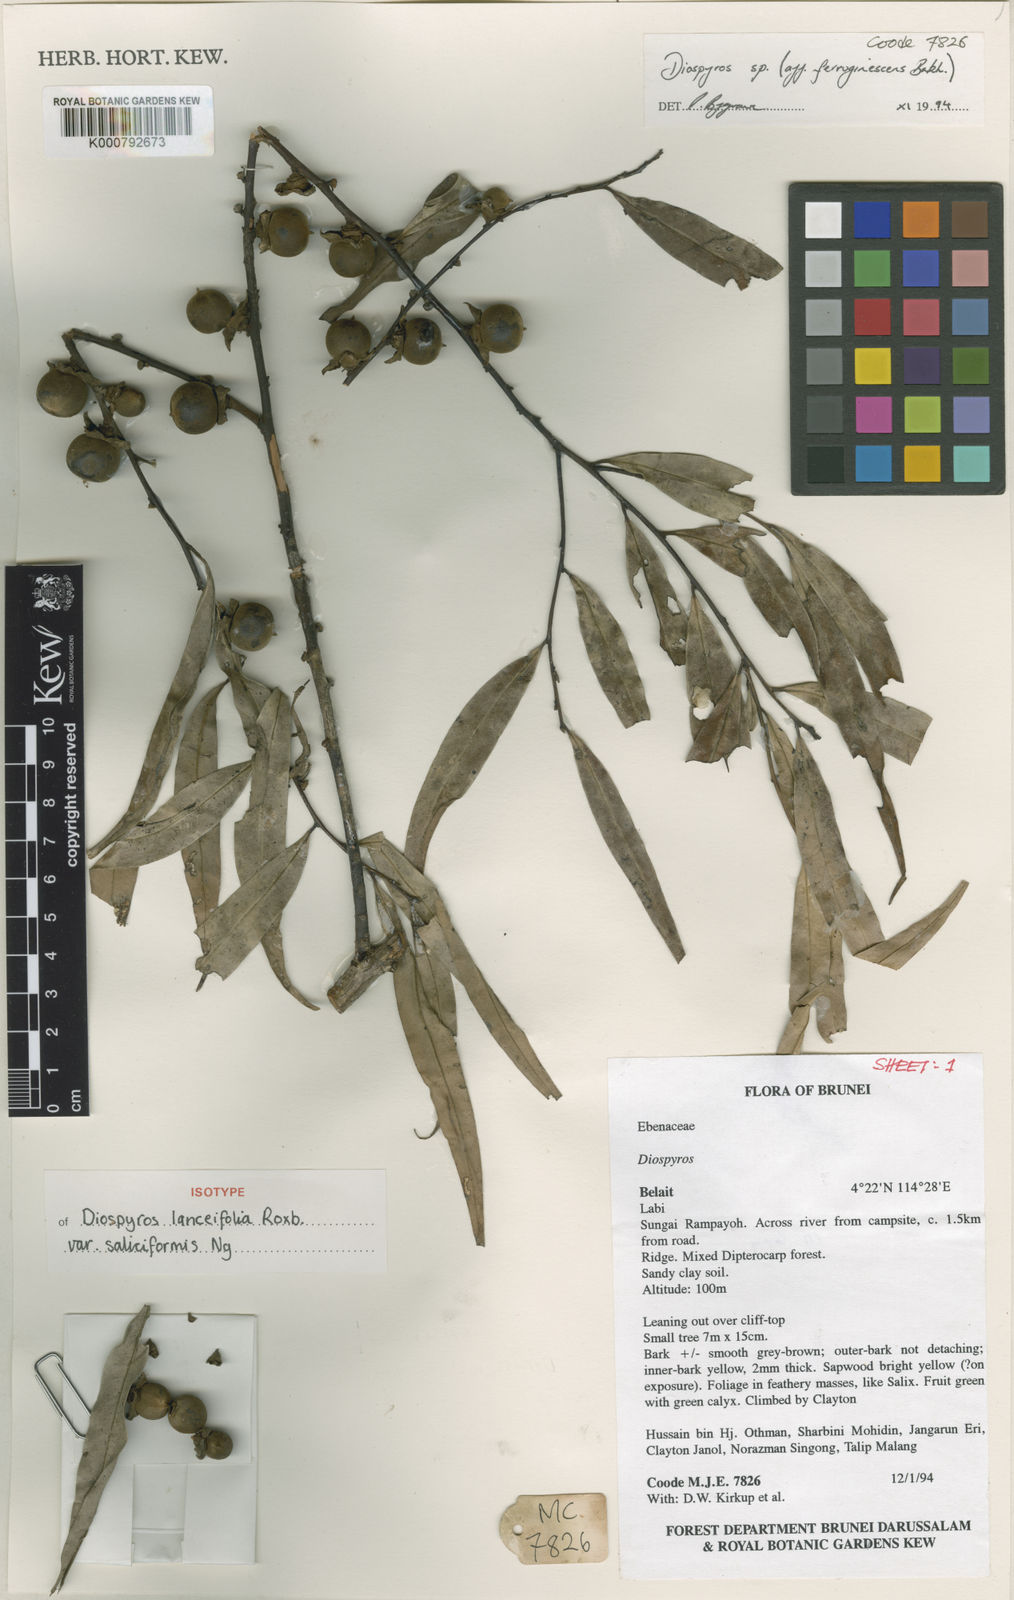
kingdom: Plantae
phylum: Tracheophyta
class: Magnoliopsida
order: Ericales
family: Ebenaceae
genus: Diospyros
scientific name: Diospyros lanceifolia
